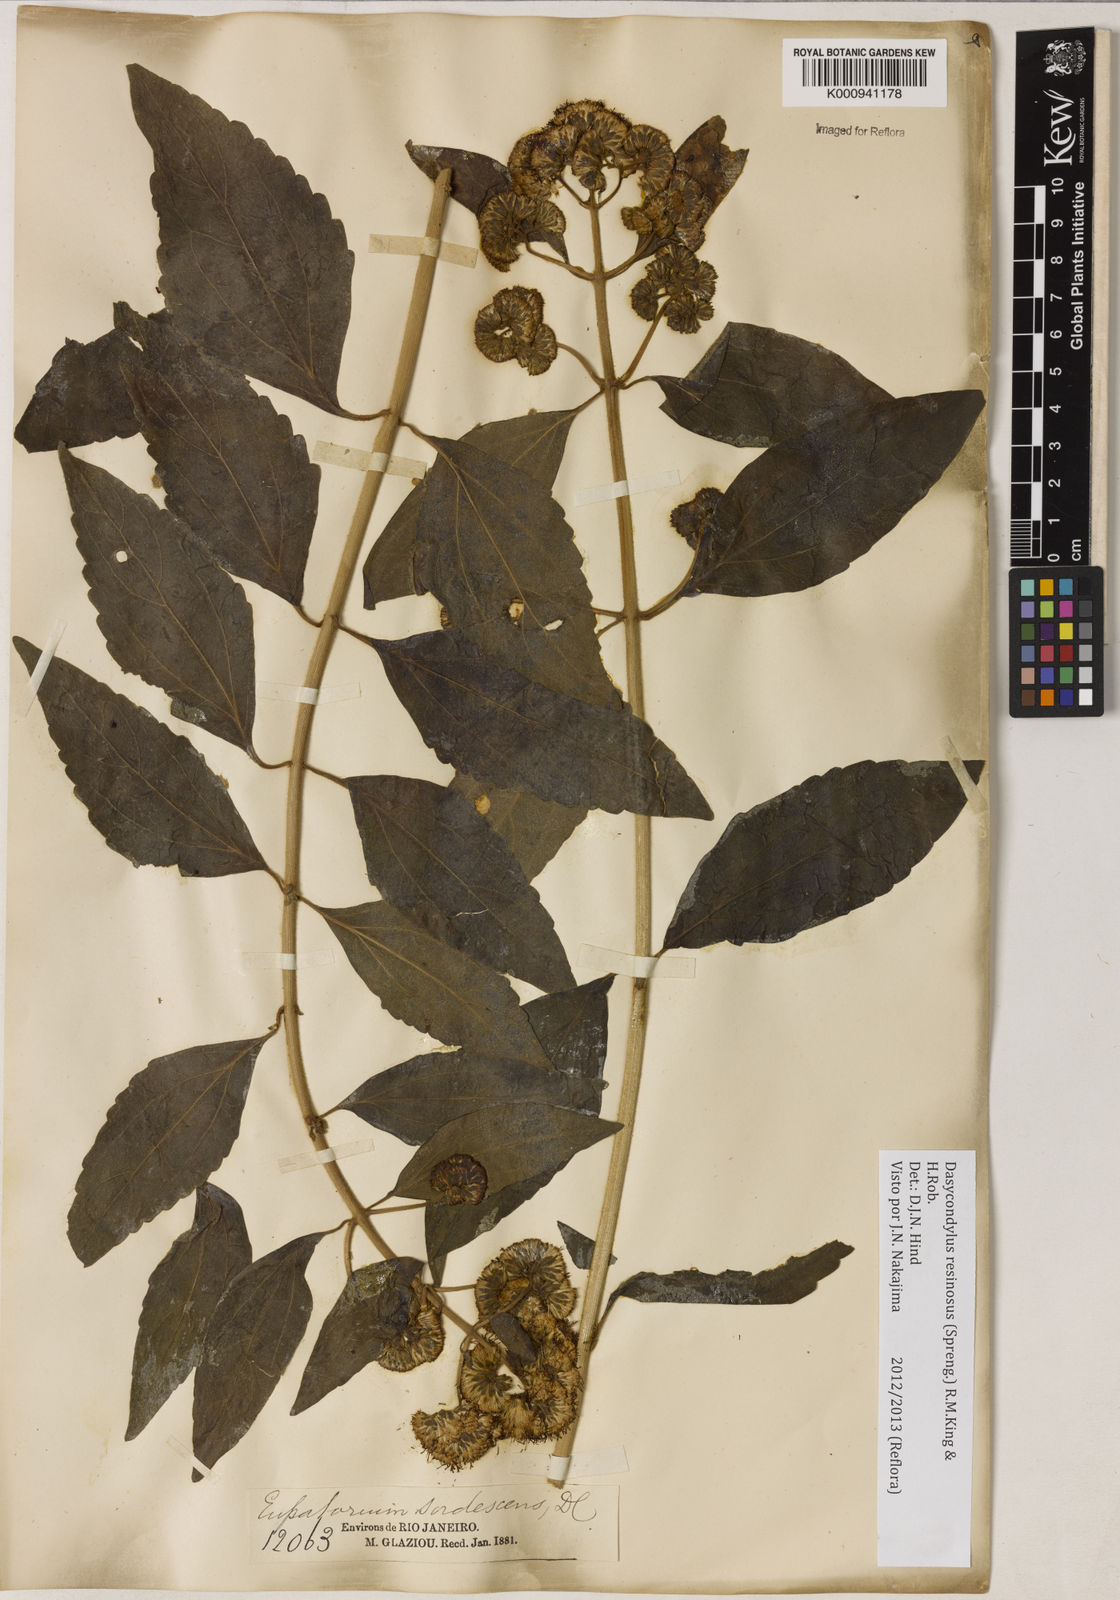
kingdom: Plantae
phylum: Tracheophyta
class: Magnoliopsida
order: Asterales
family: Asteraceae
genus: Dasycondylus
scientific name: Dasycondylus resinosus
